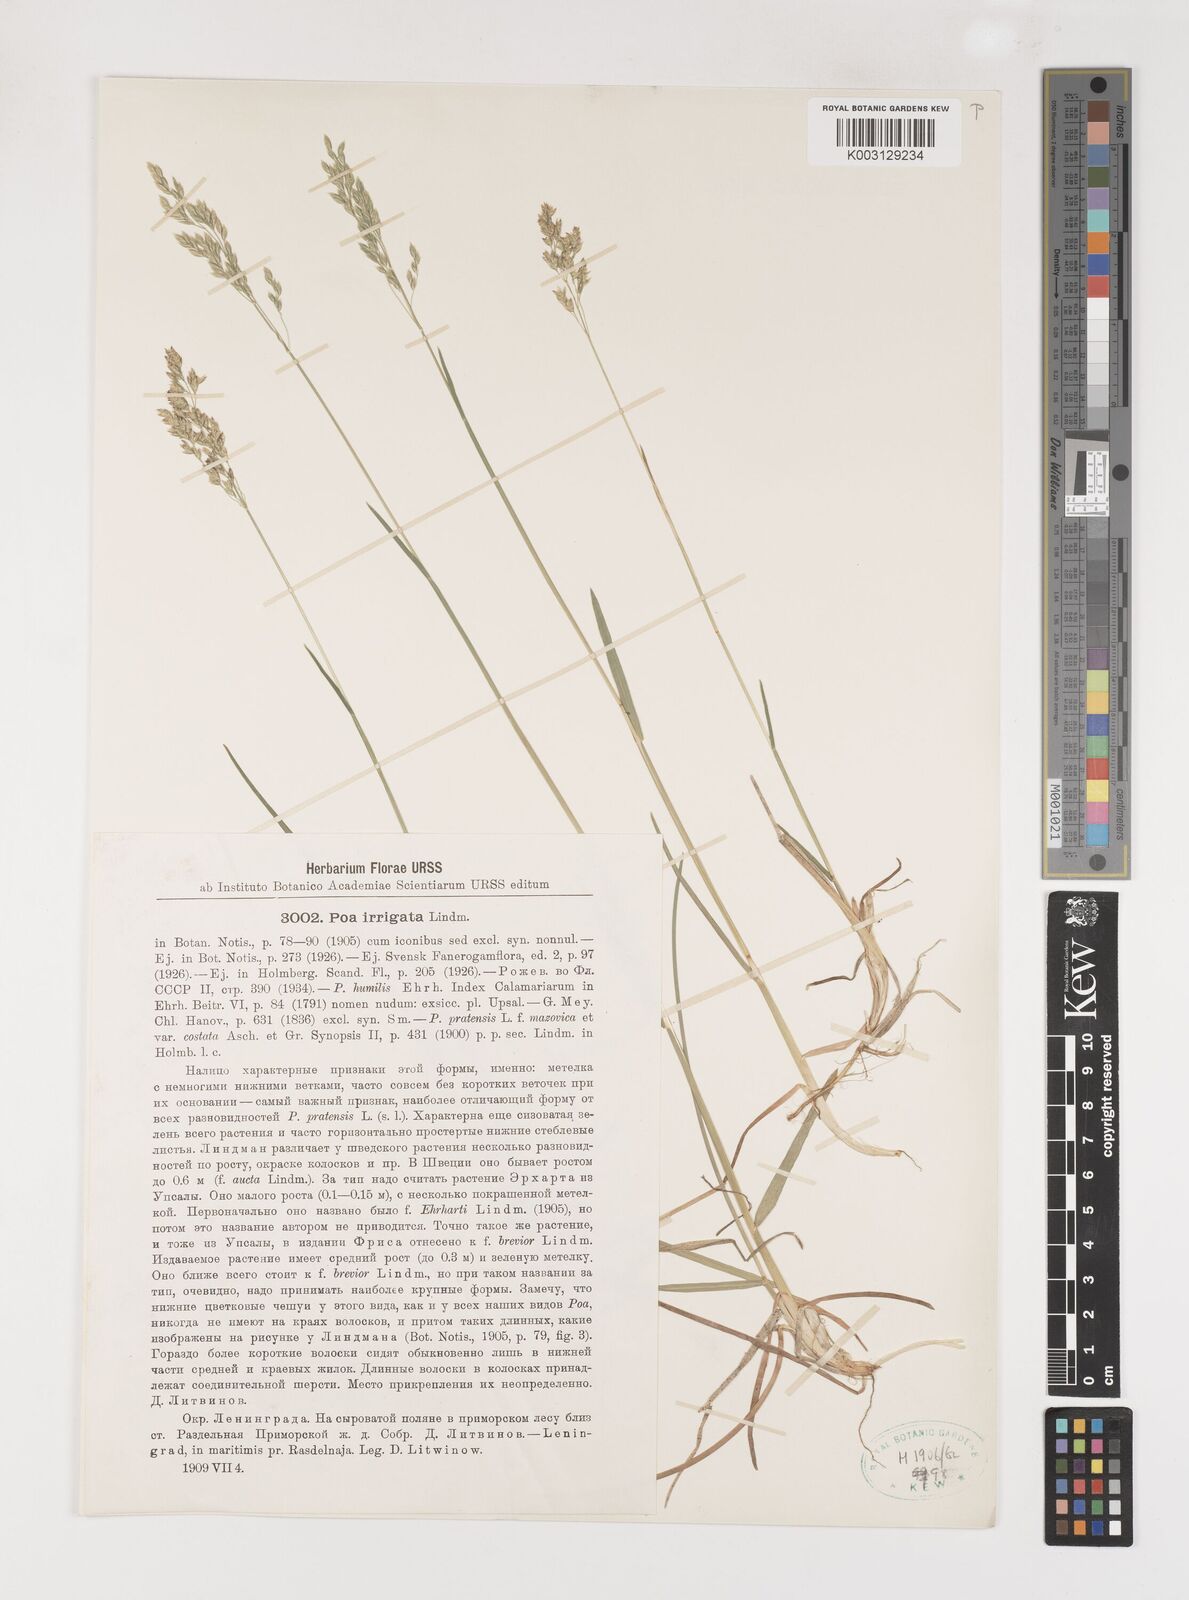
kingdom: Plantae
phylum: Tracheophyta
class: Liliopsida
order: Poales
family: Poaceae
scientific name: Poaceae
